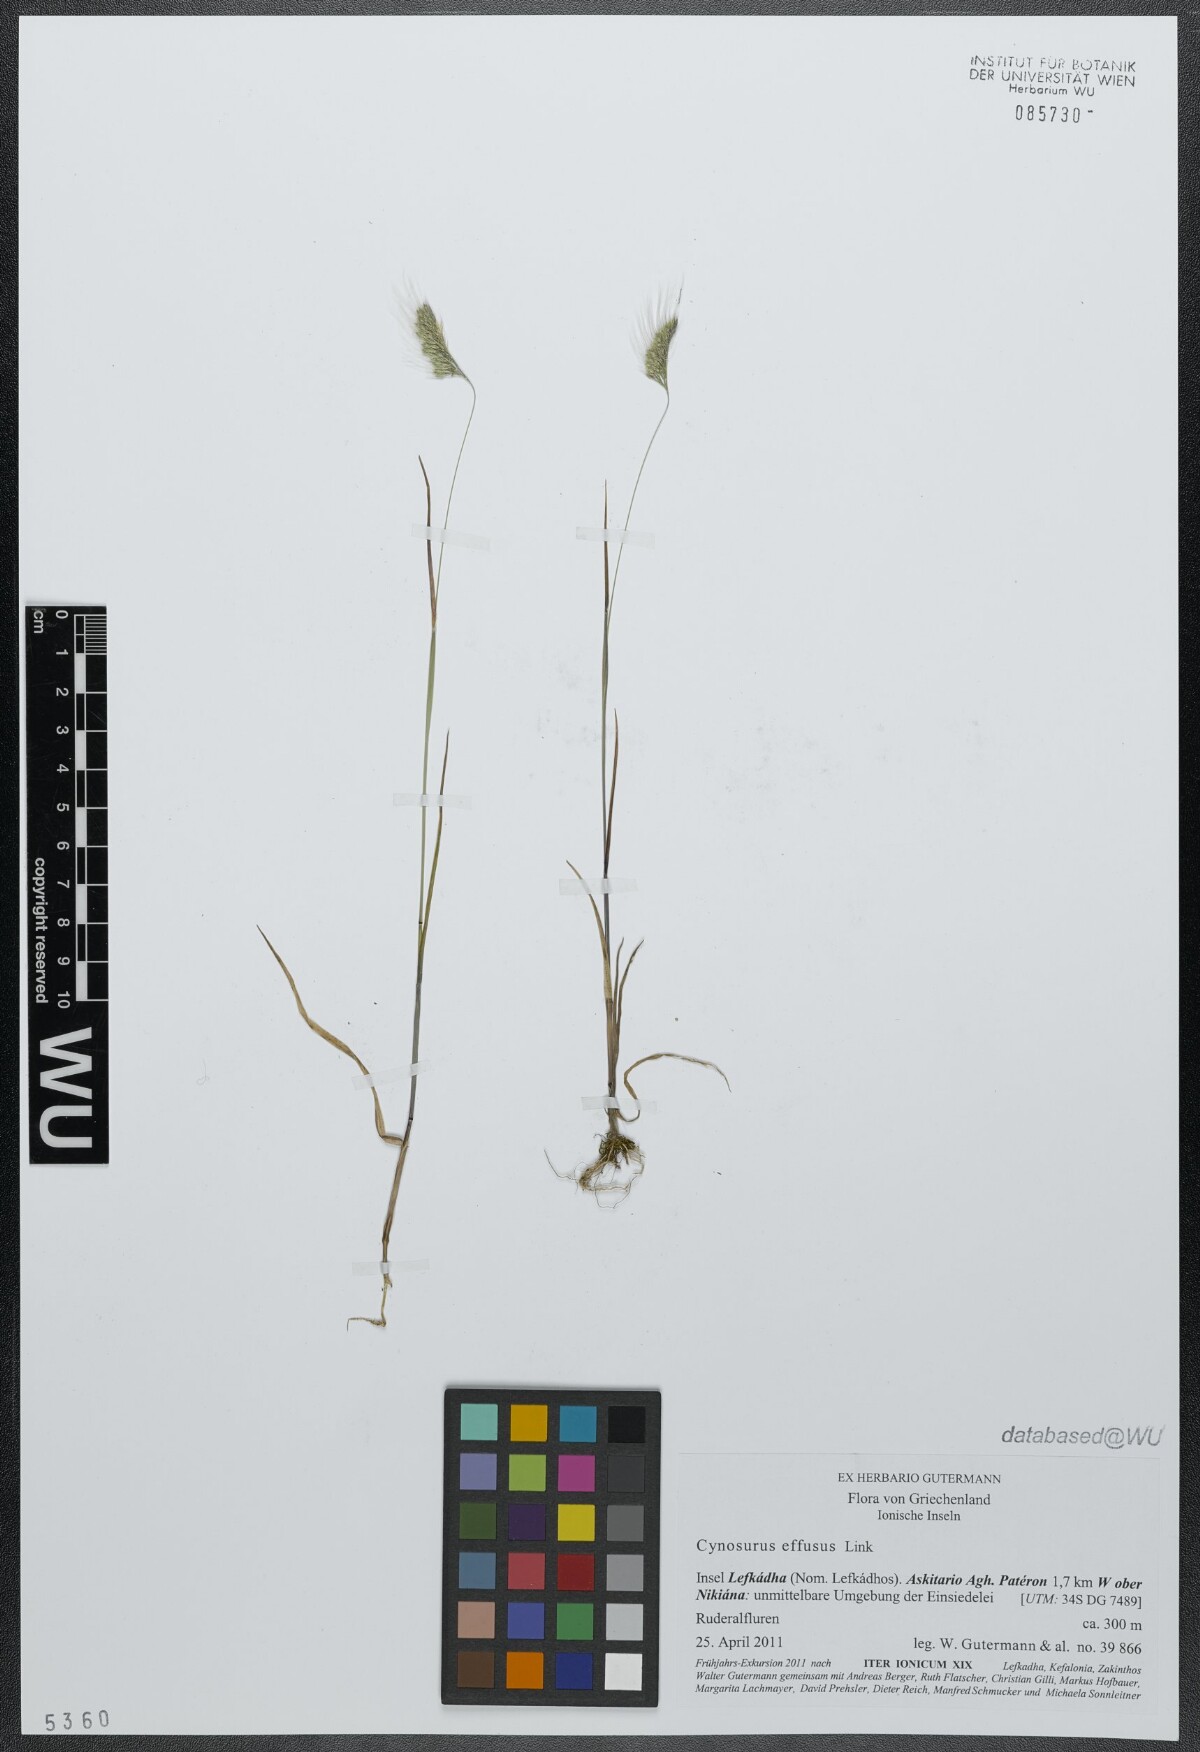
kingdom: Plantae
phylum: Tracheophyta
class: Liliopsida
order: Poales
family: Poaceae
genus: Cynosurus
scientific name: Cynosurus effusus
